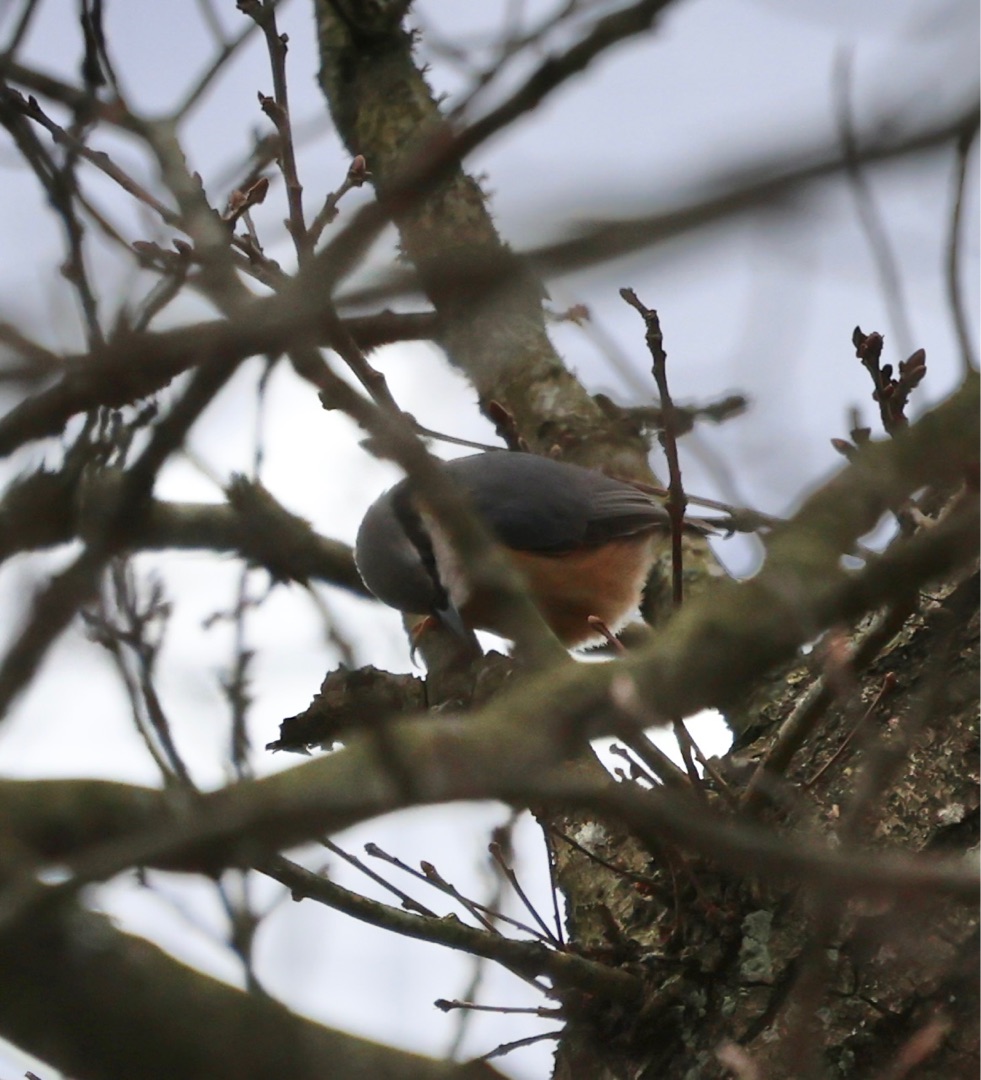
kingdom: Animalia
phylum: Chordata
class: Aves
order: Passeriformes
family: Sittidae
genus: Sitta
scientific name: Sitta europaea
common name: Spætmejse
